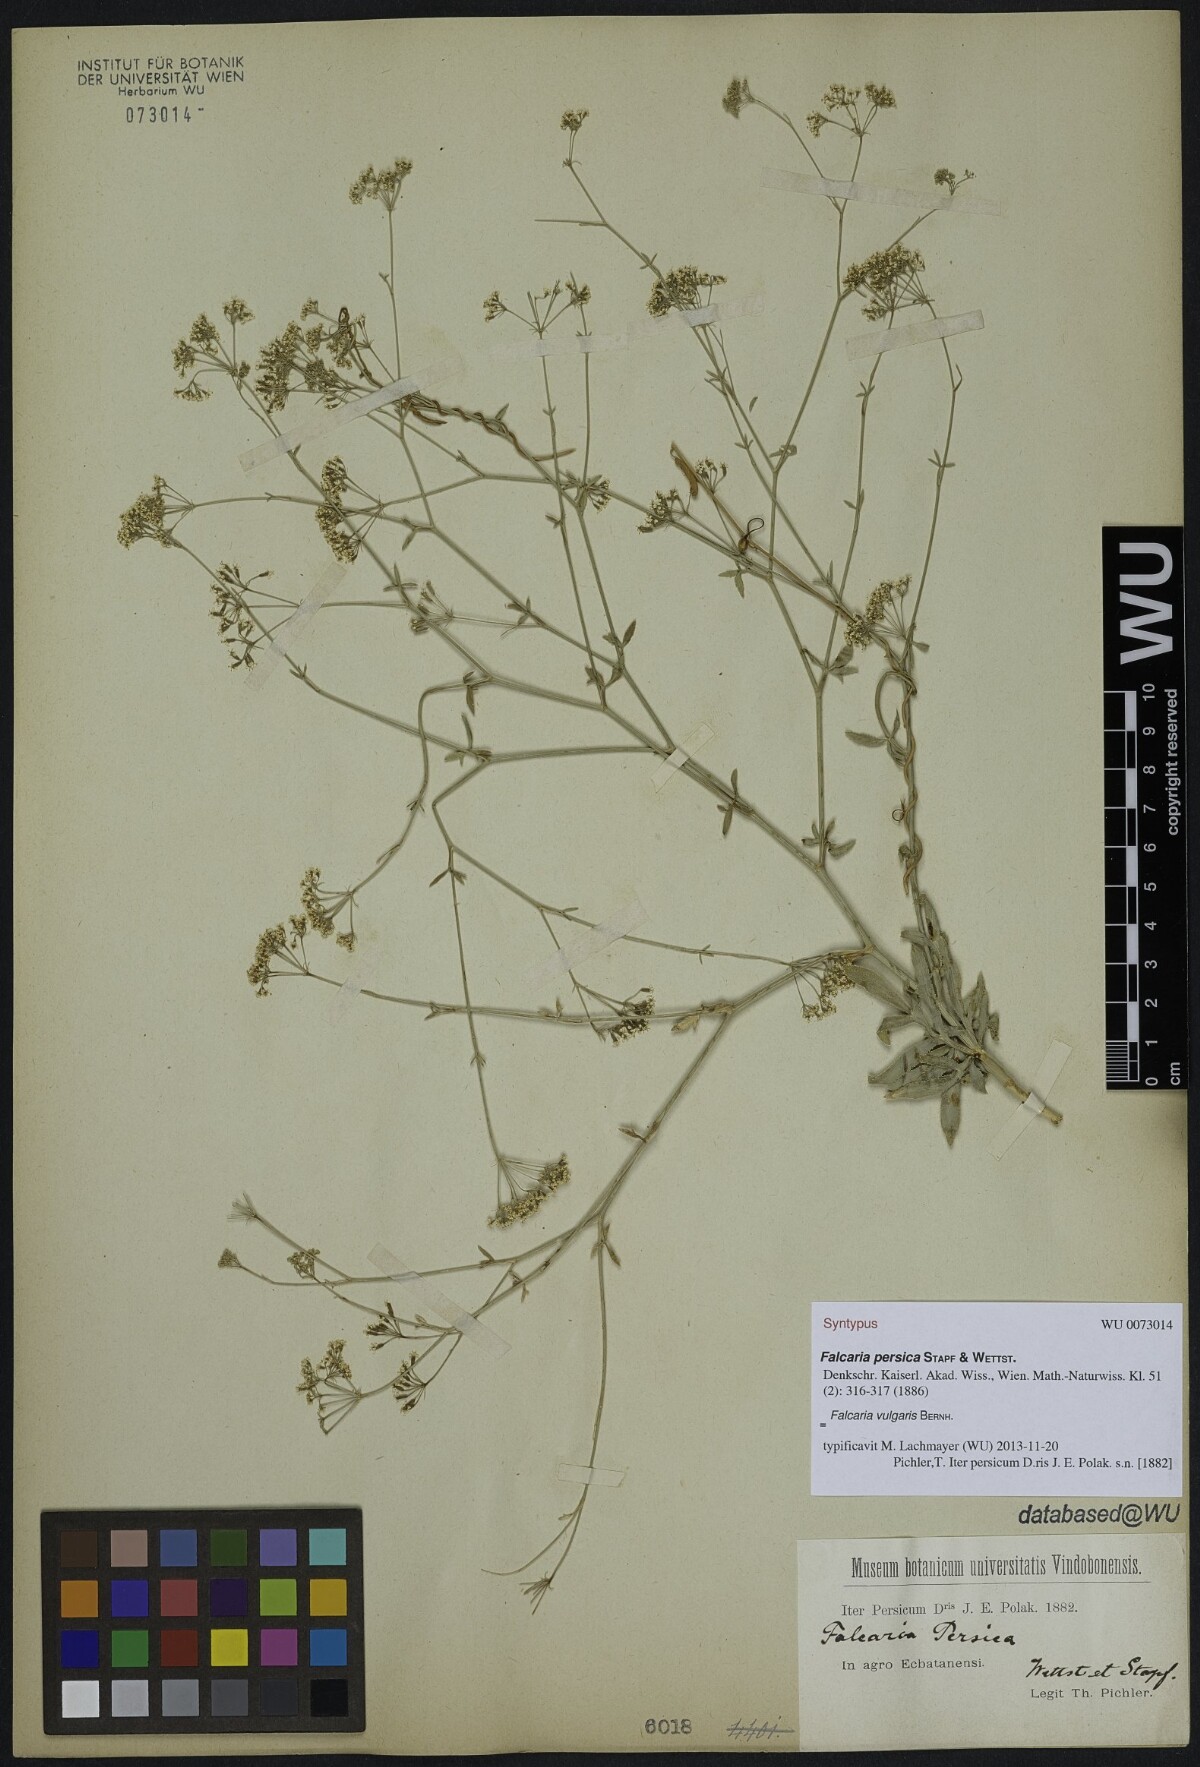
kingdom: Plantae
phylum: Tracheophyta
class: Magnoliopsida
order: Apiales
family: Apiaceae
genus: Falcaria
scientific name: Falcaria vulgaris
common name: Longleaf
